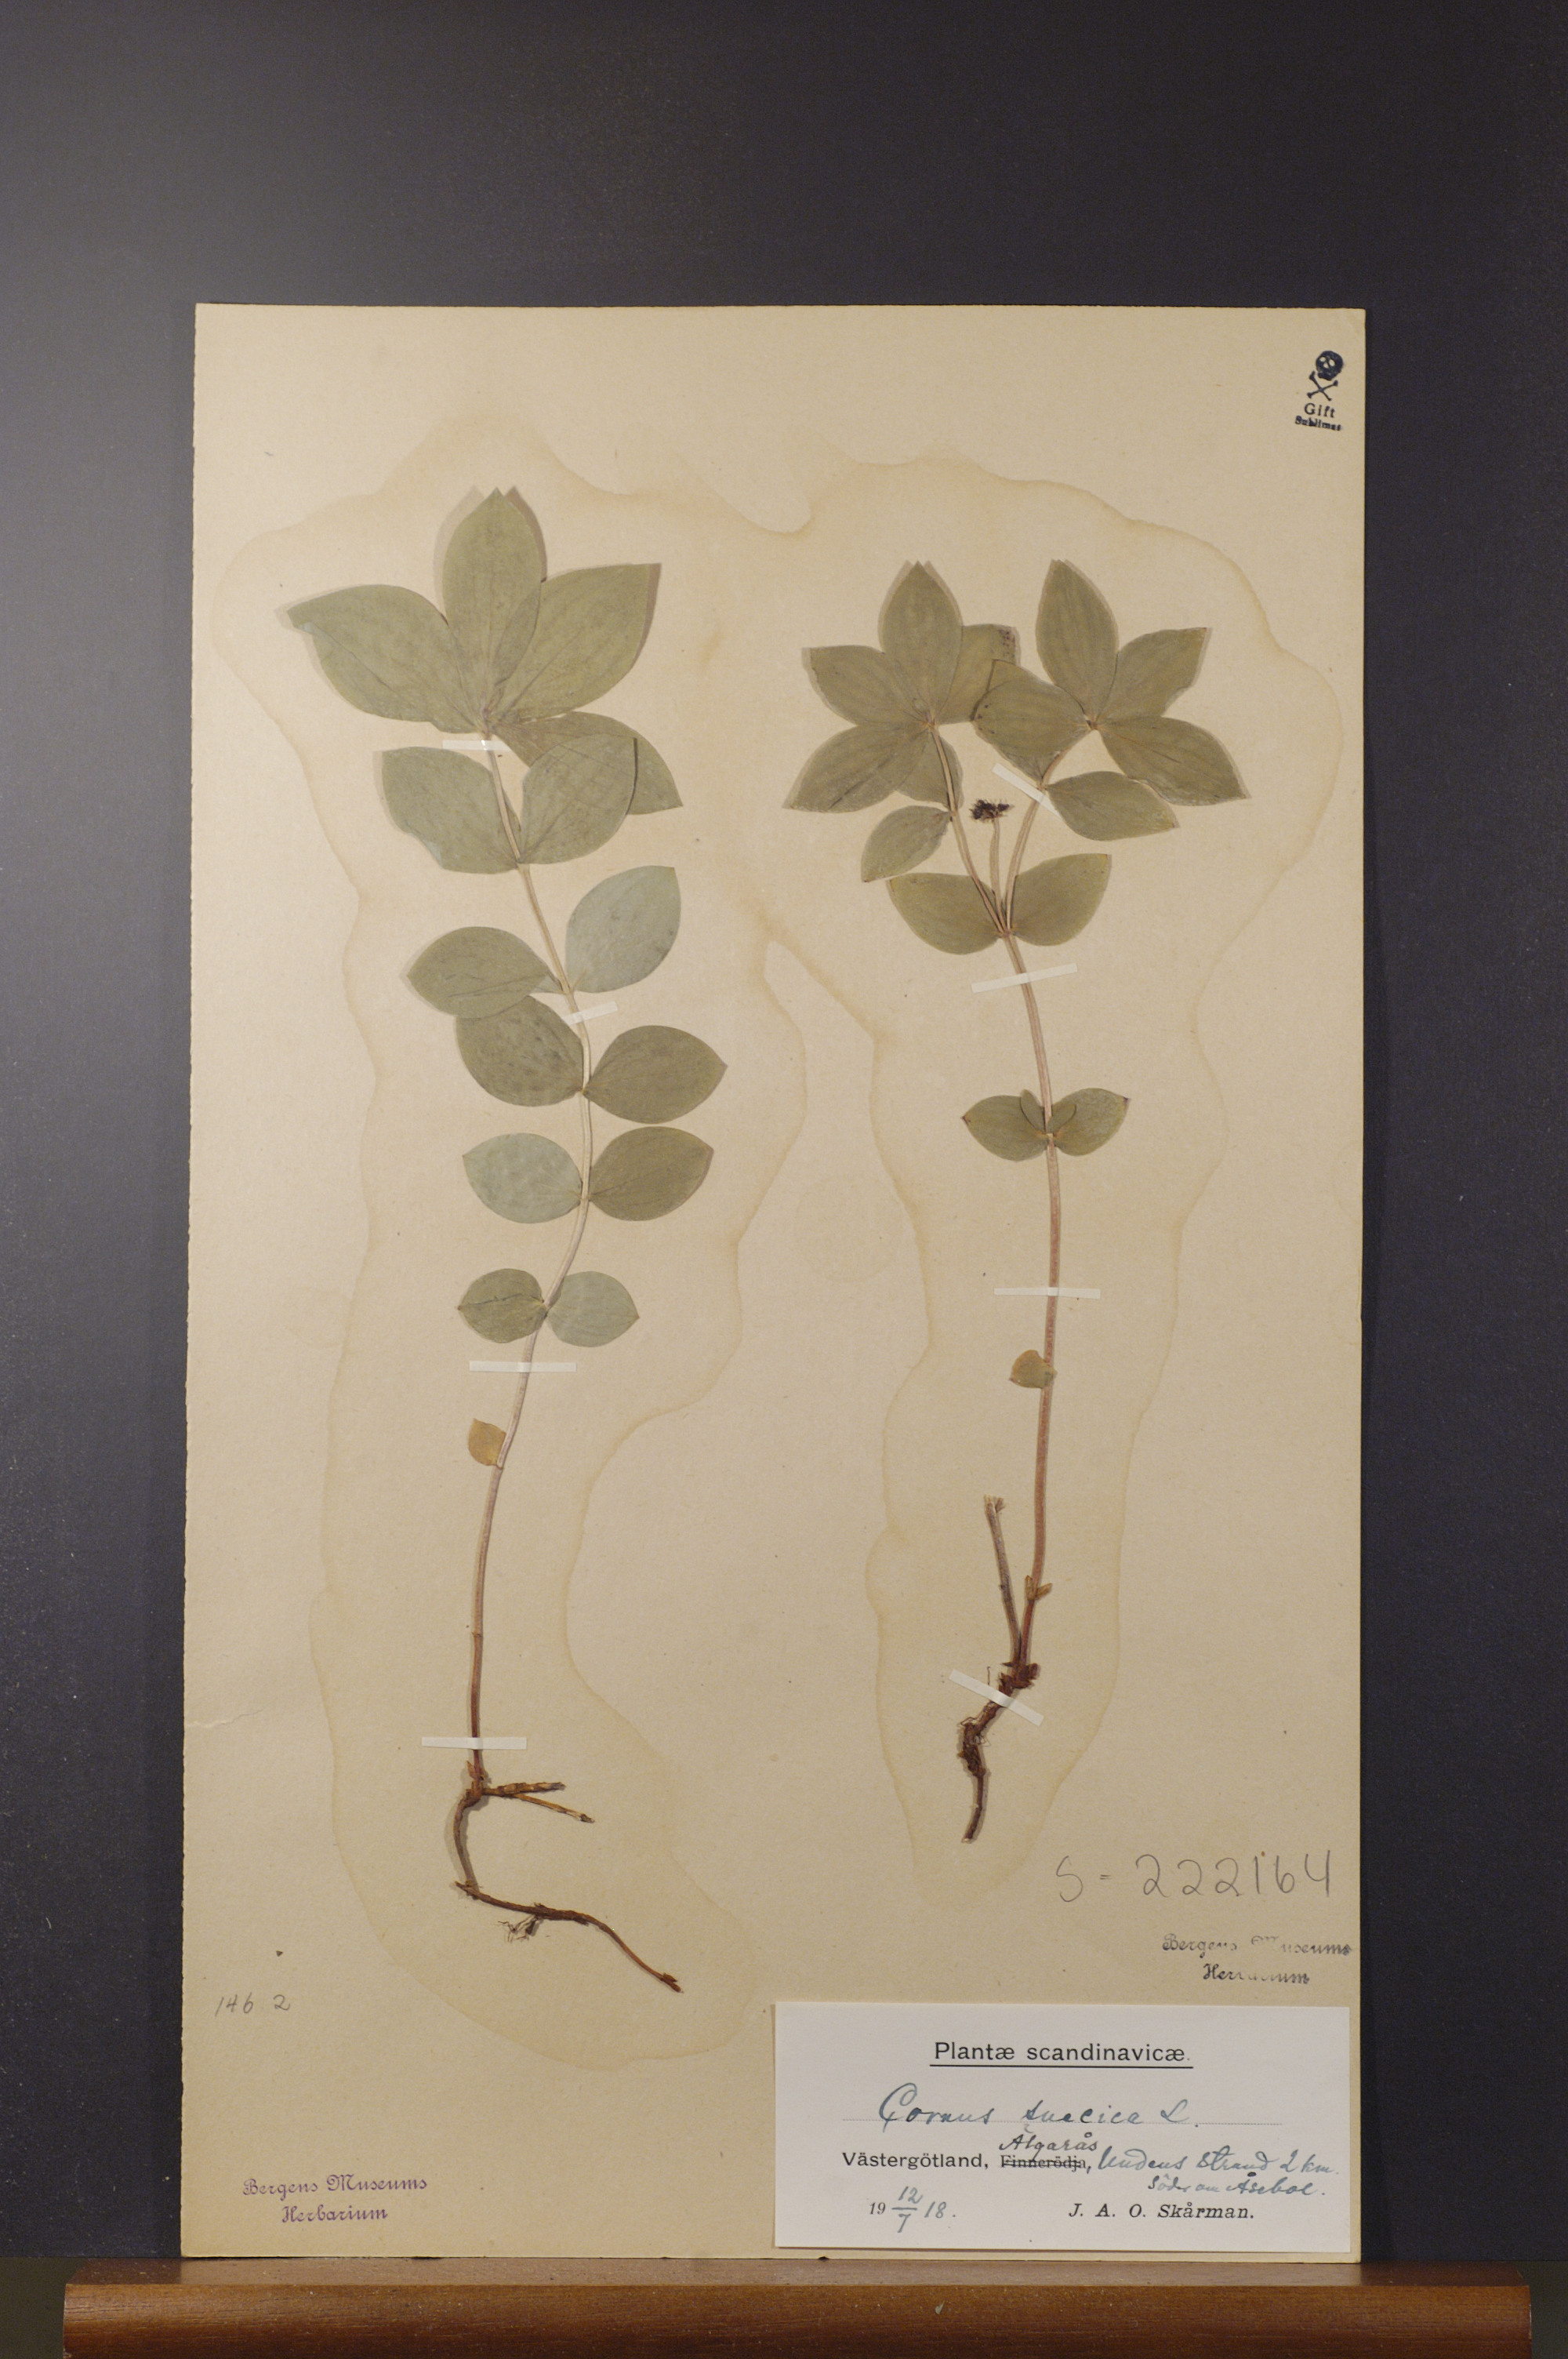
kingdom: Plantae
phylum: Tracheophyta
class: Magnoliopsida
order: Cornales
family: Cornaceae
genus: Cornus
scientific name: Cornus suecica
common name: Dwarf cornel
